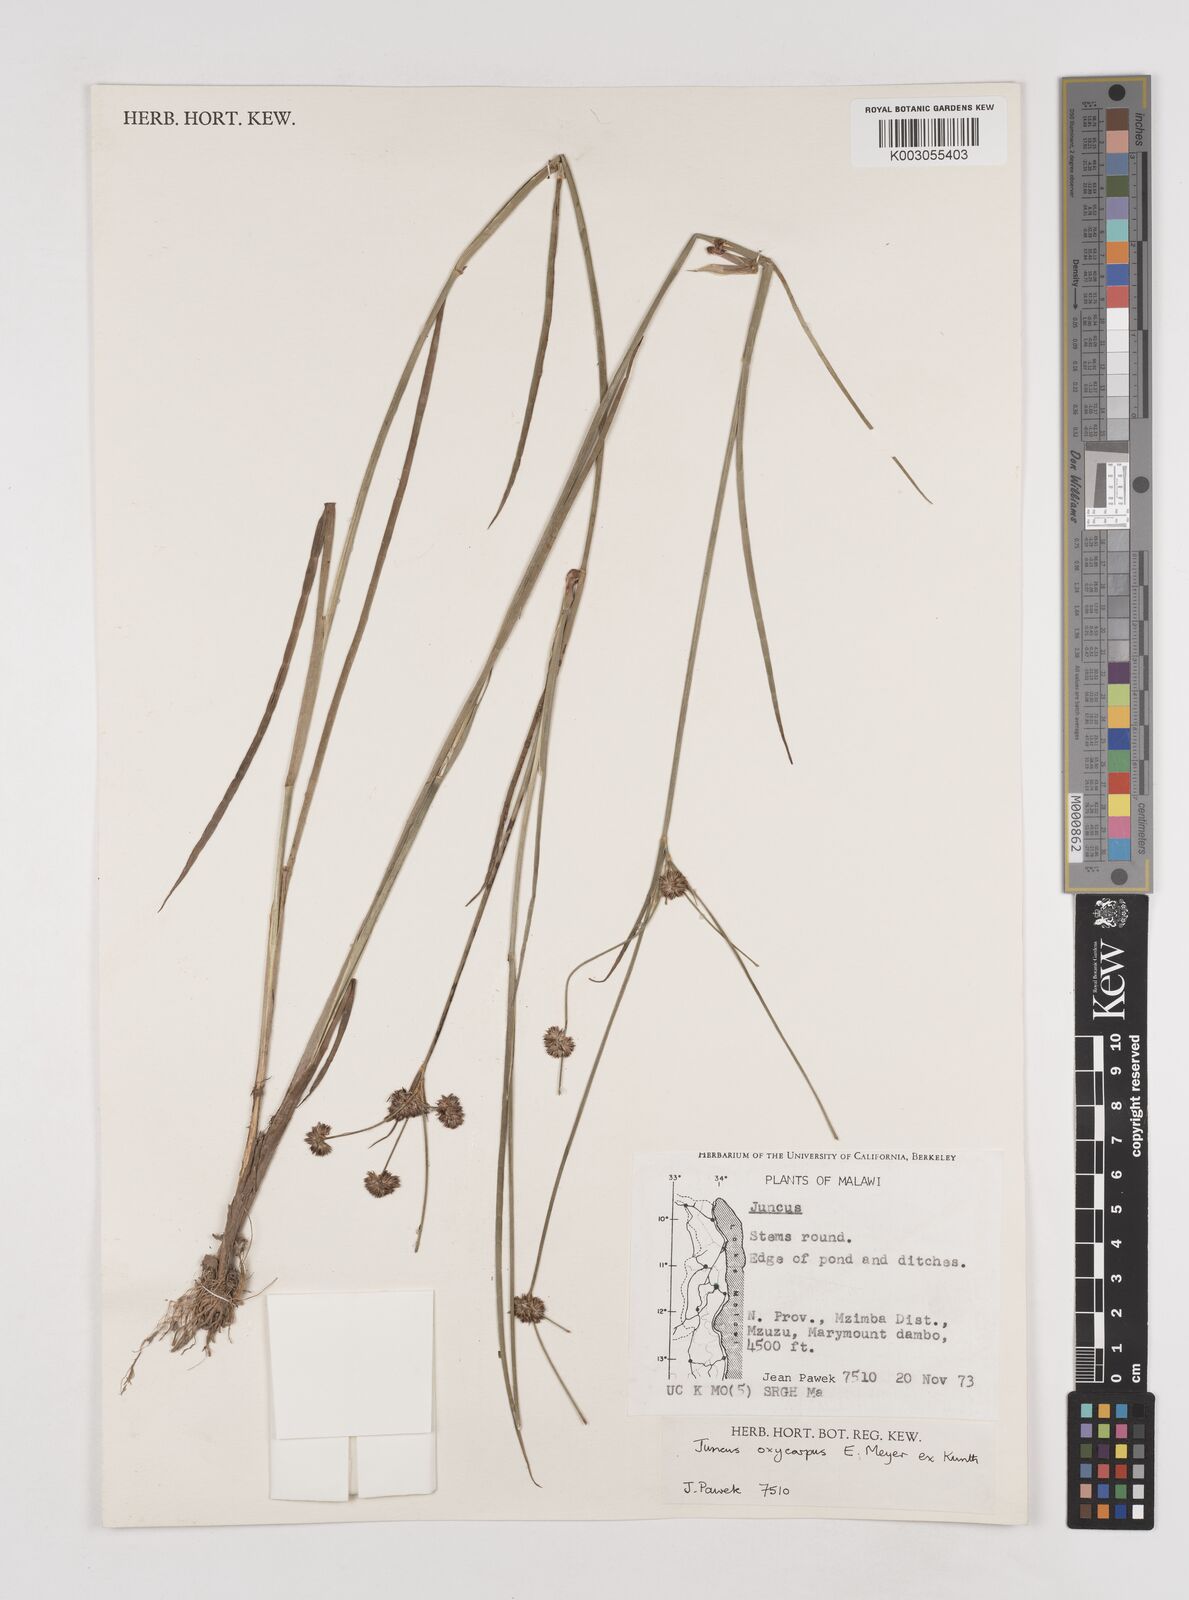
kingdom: Plantae
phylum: Tracheophyta
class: Liliopsida
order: Poales
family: Juncaceae
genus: Juncus
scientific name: Juncus oxycarpus
